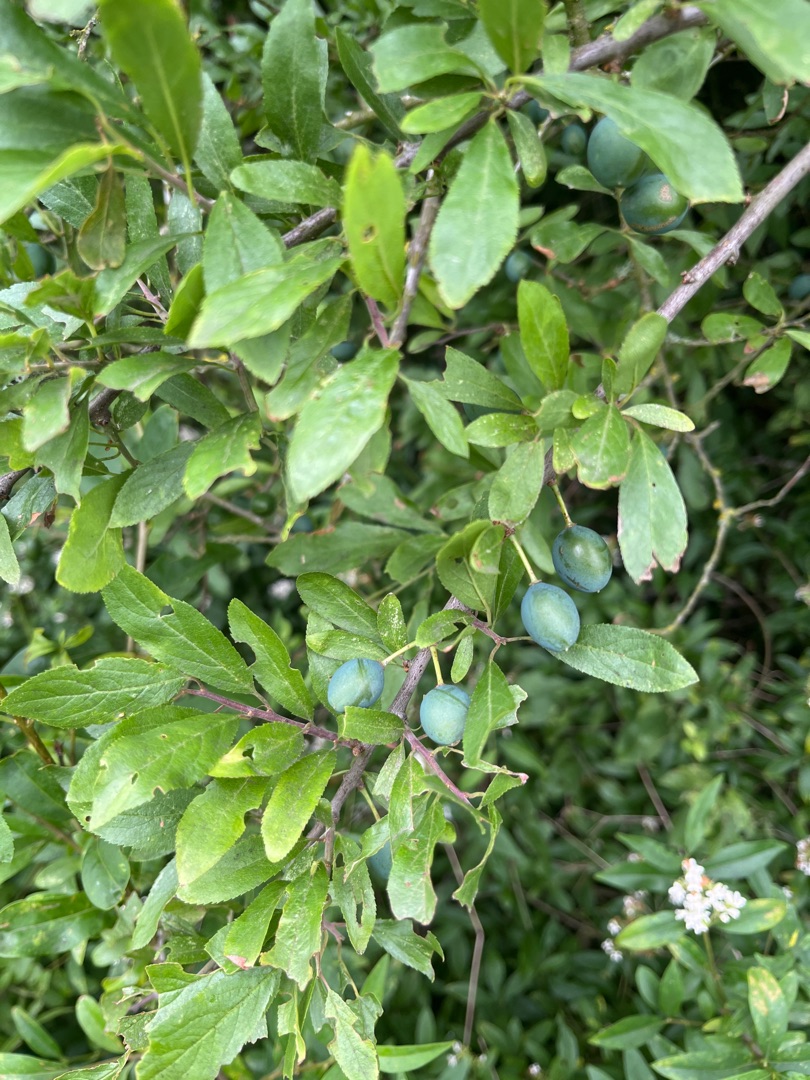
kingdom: Plantae
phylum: Tracheophyta
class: Magnoliopsida
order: Rosales
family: Rosaceae
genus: Prunus
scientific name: Prunus spinosa
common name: Slåen
